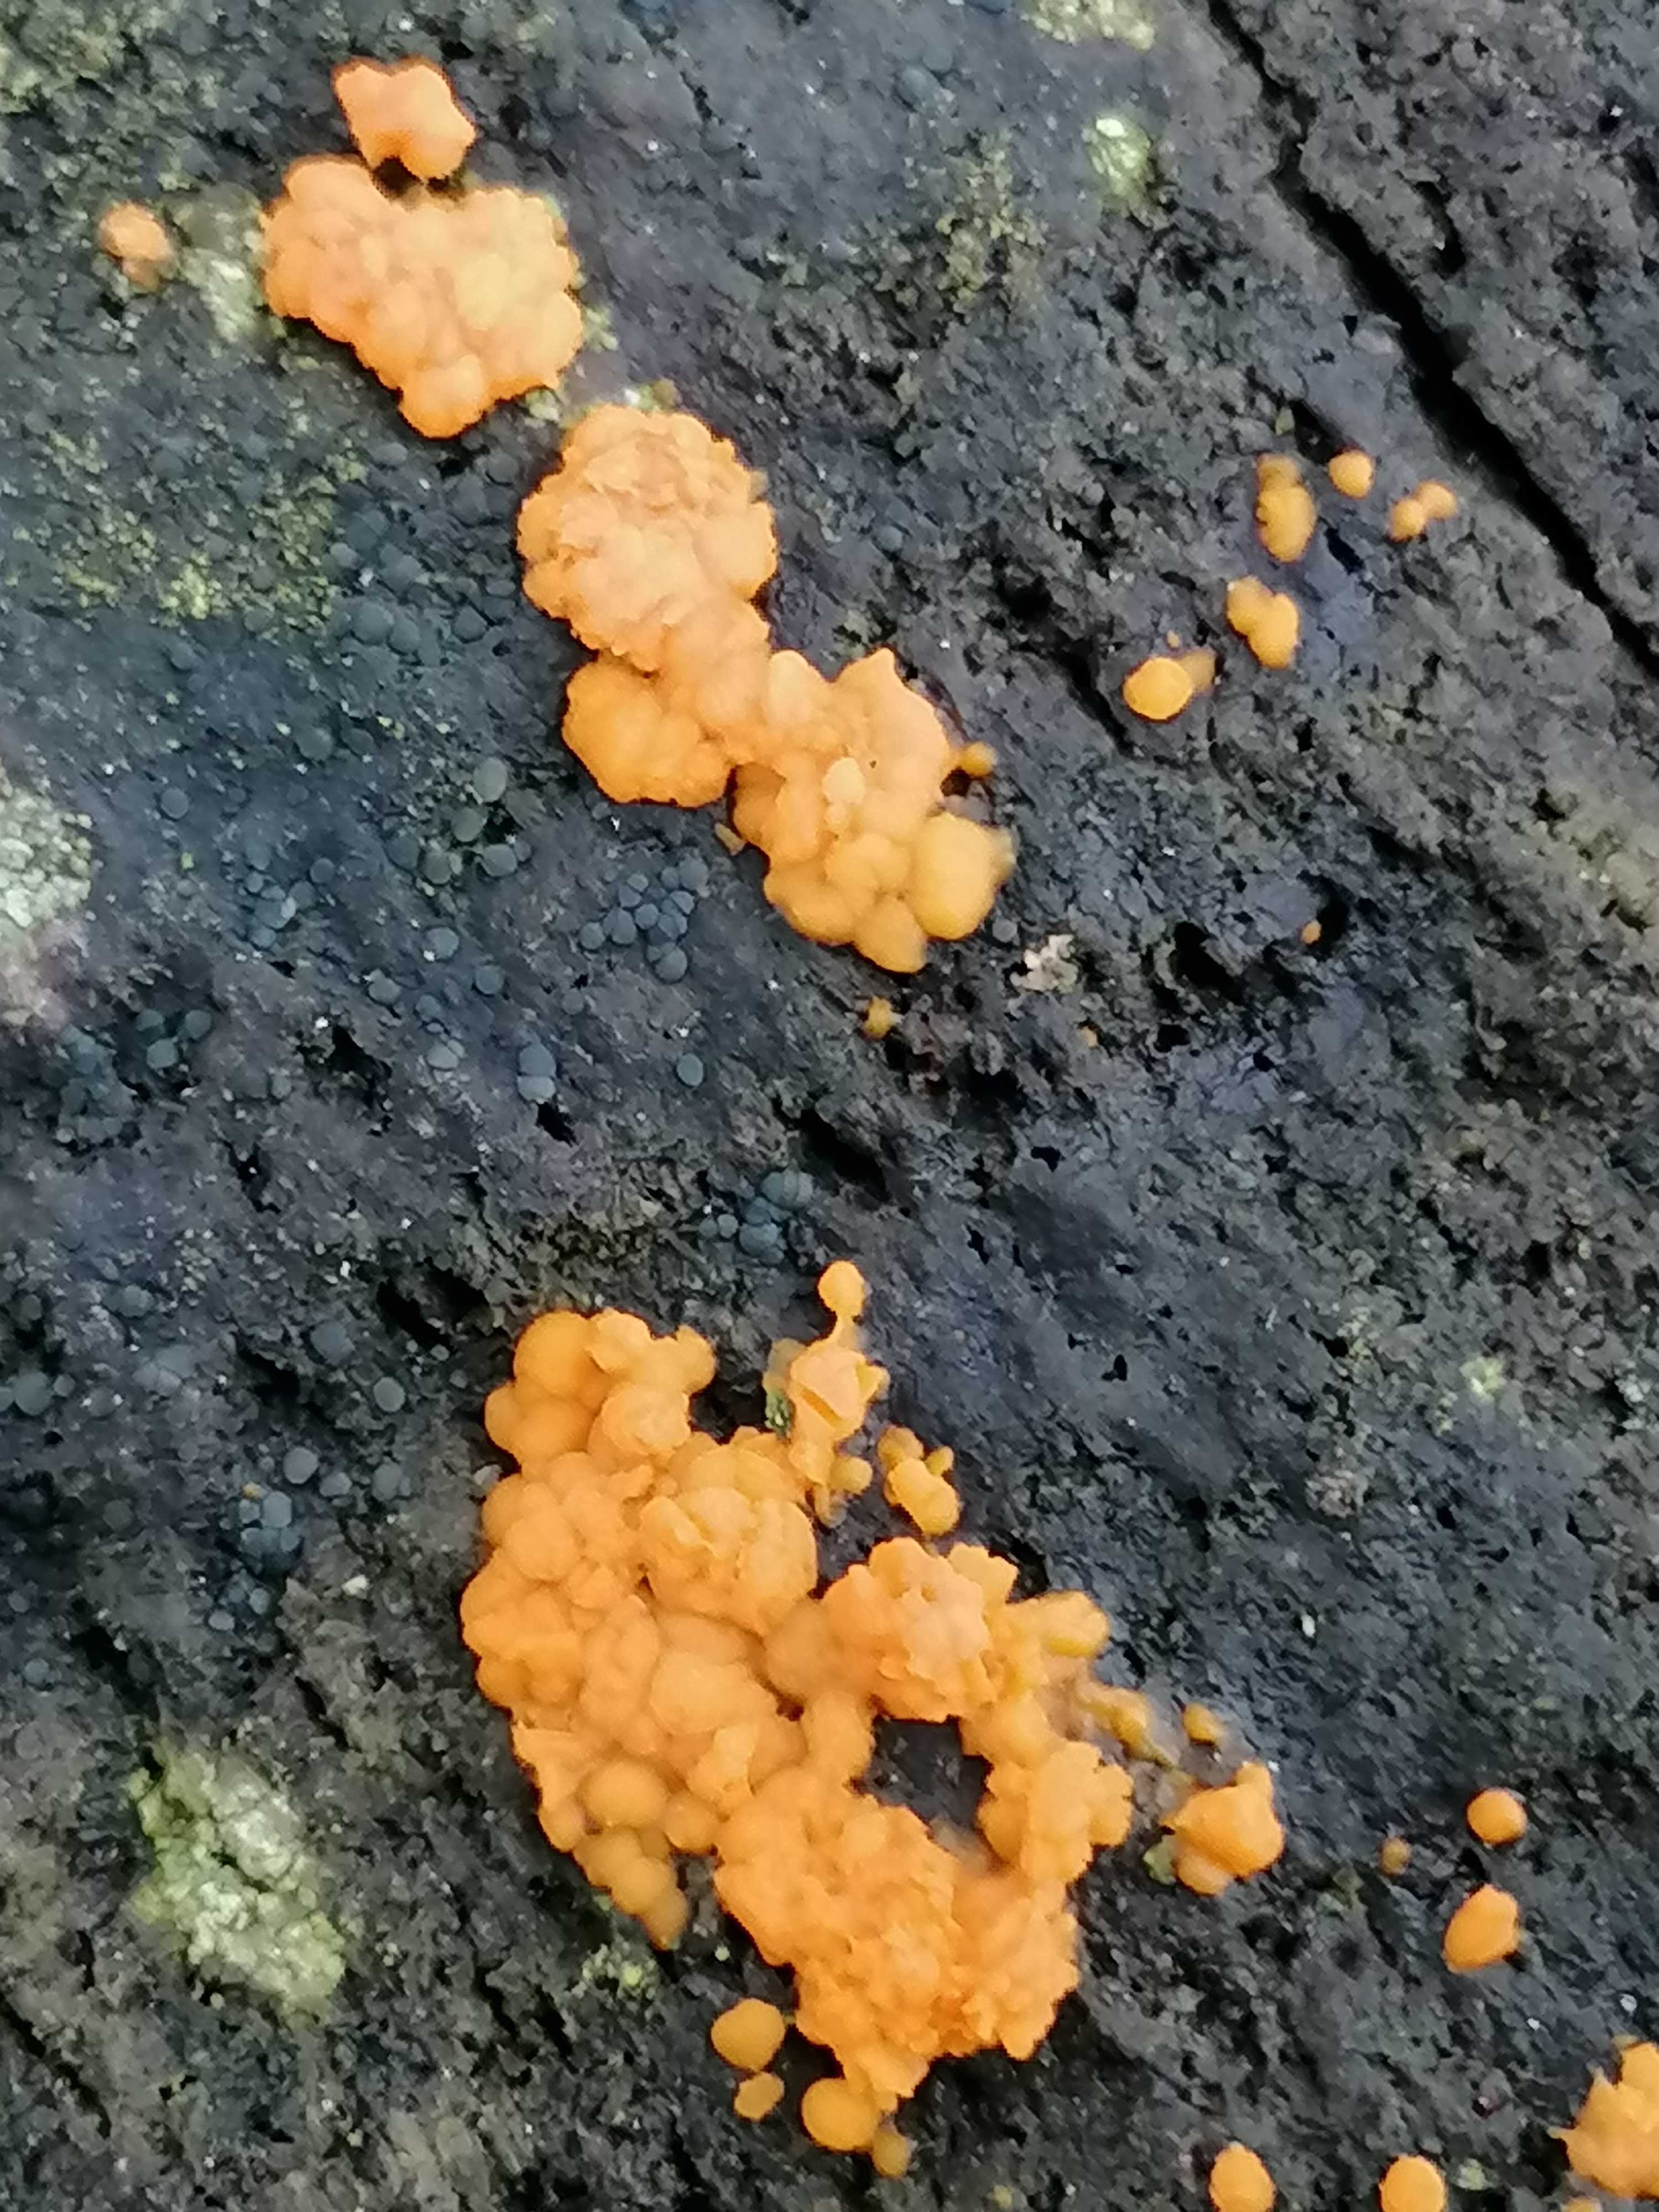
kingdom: Fungi
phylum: Basidiomycota
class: Dacrymycetes
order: Dacrymycetales
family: Dacrymycetaceae
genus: Dacrymyces
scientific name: Dacrymyces stillatus
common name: almindelig tåresvamp
